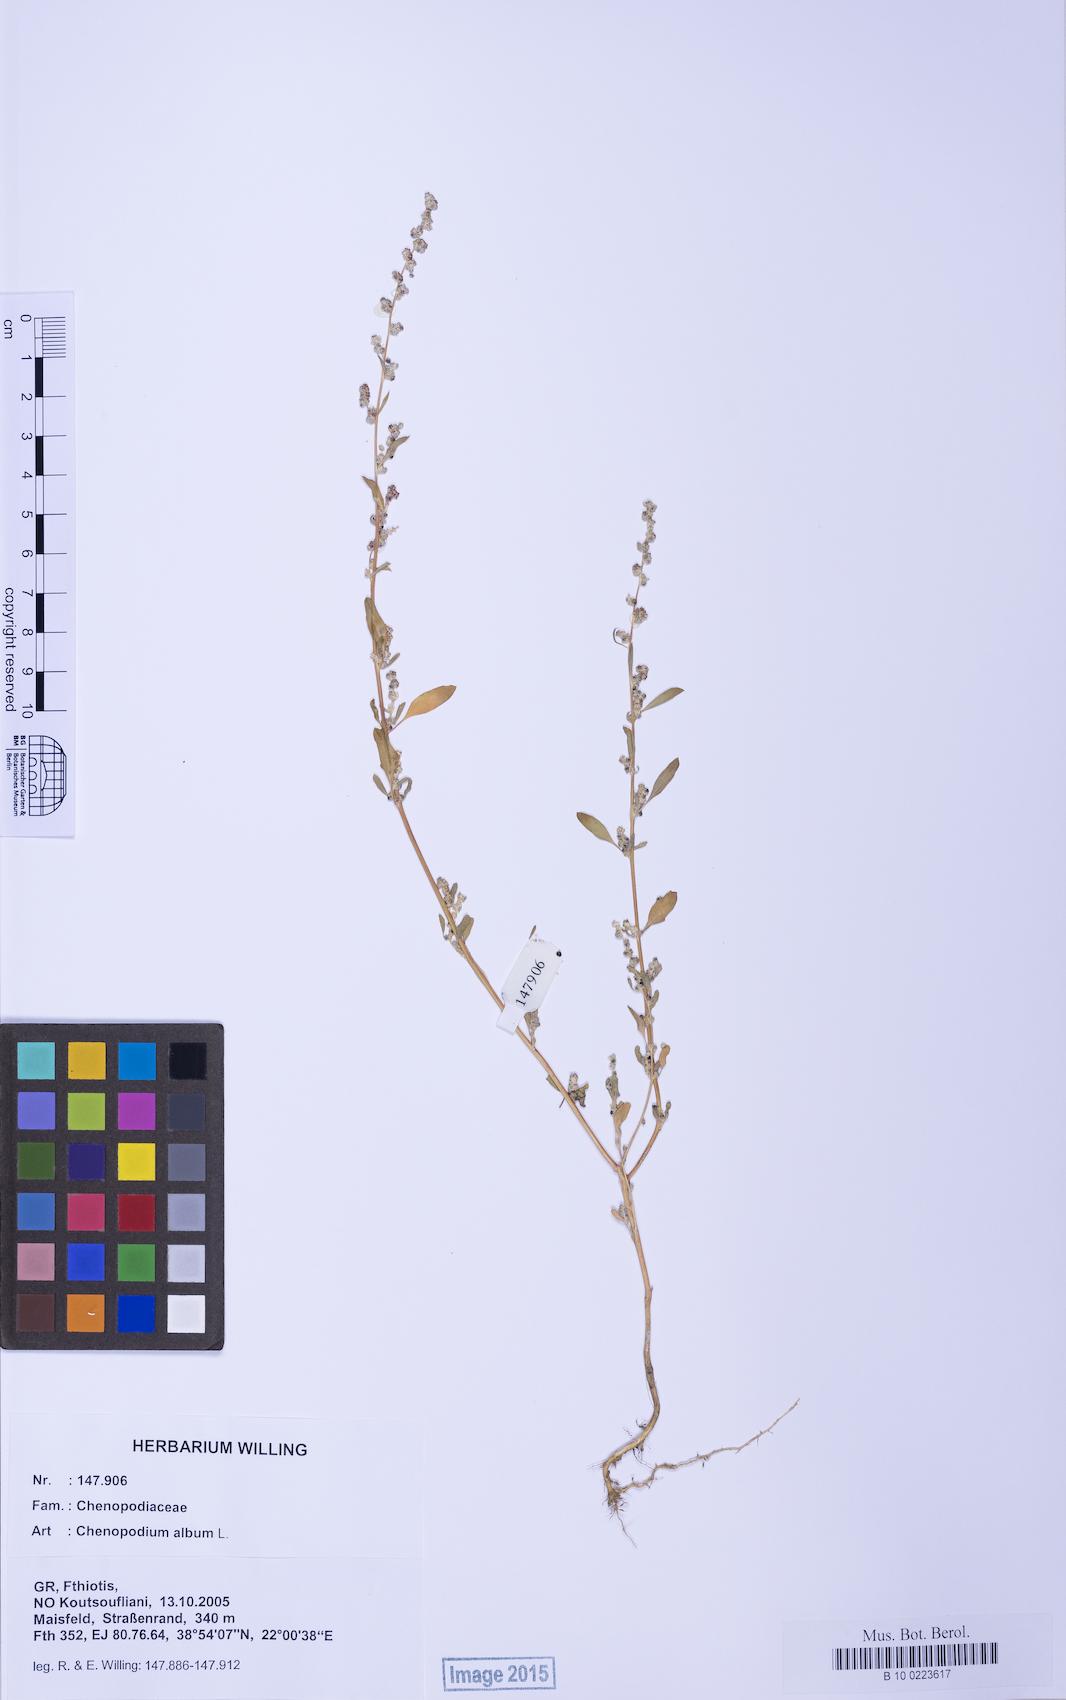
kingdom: Plantae
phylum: Tracheophyta
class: Magnoliopsida
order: Caryophyllales
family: Amaranthaceae
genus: Chenopodium
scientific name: Chenopodium album
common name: Fat-hen
